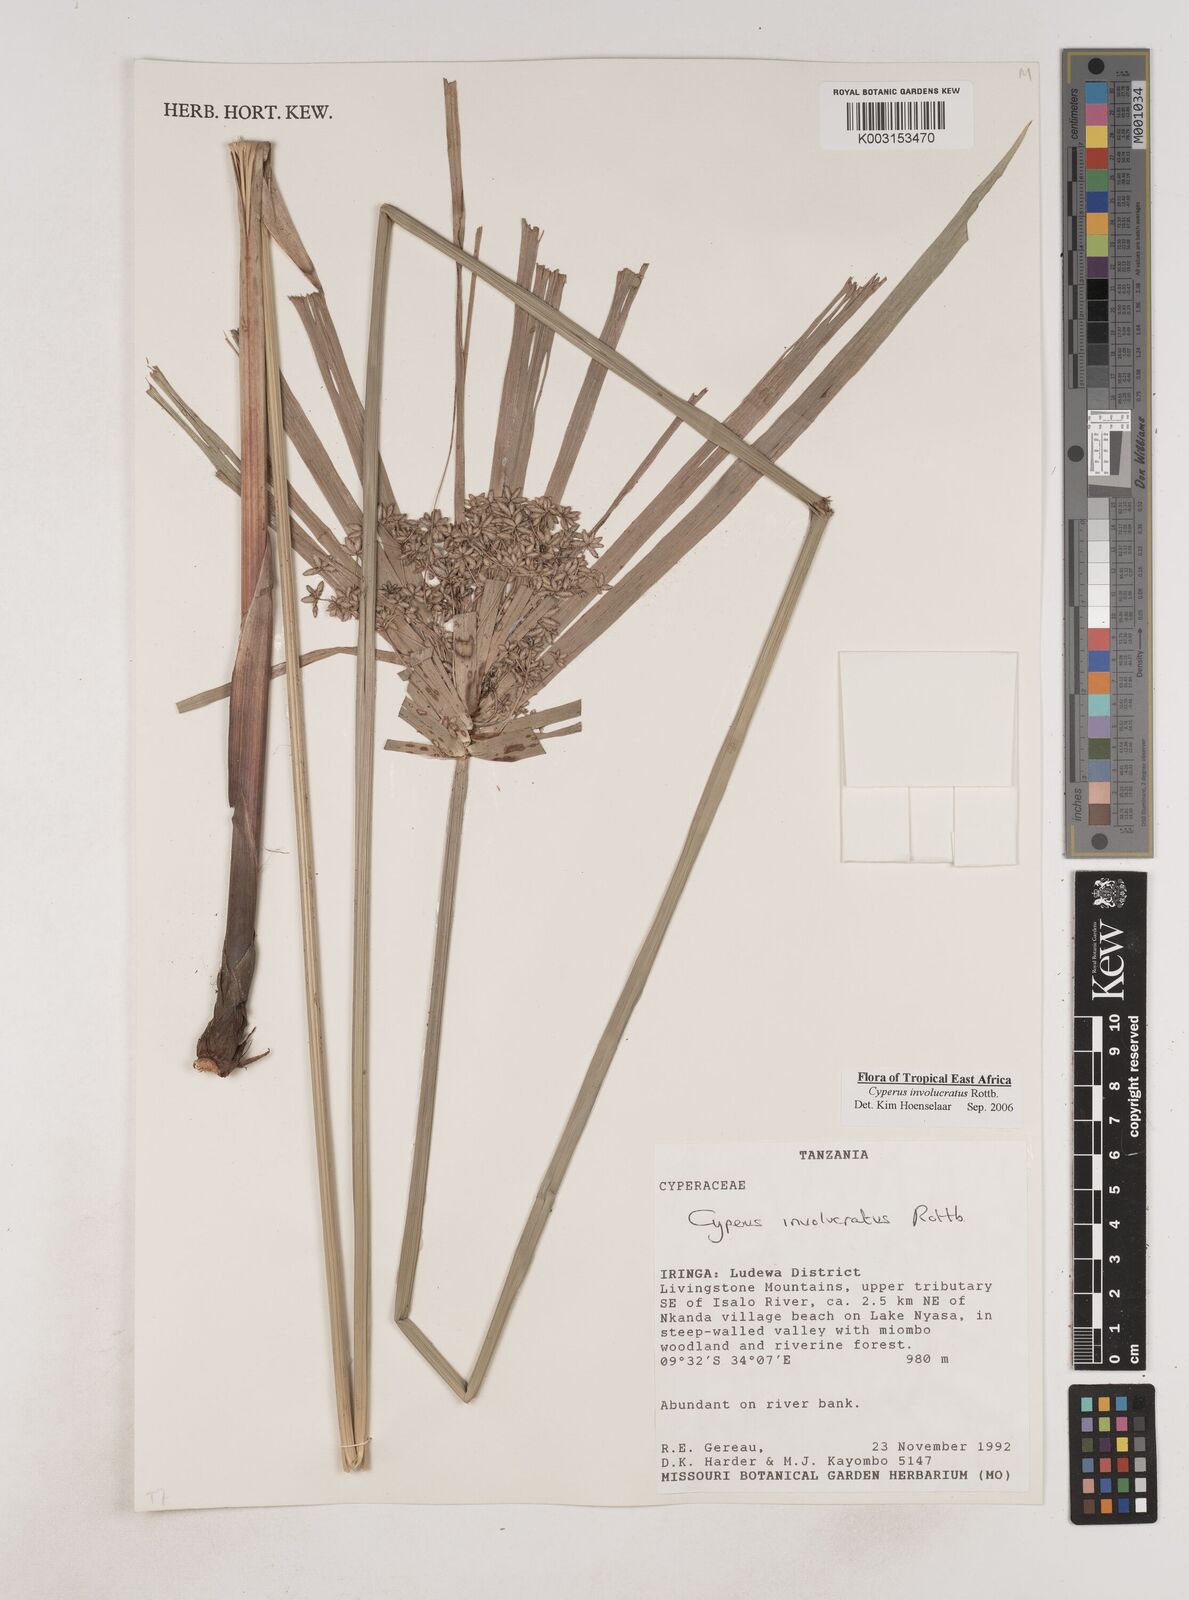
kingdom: Plantae
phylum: Tracheophyta
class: Liliopsida
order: Poales
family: Cyperaceae
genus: Cyperus
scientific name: Cyperus alternifolius
